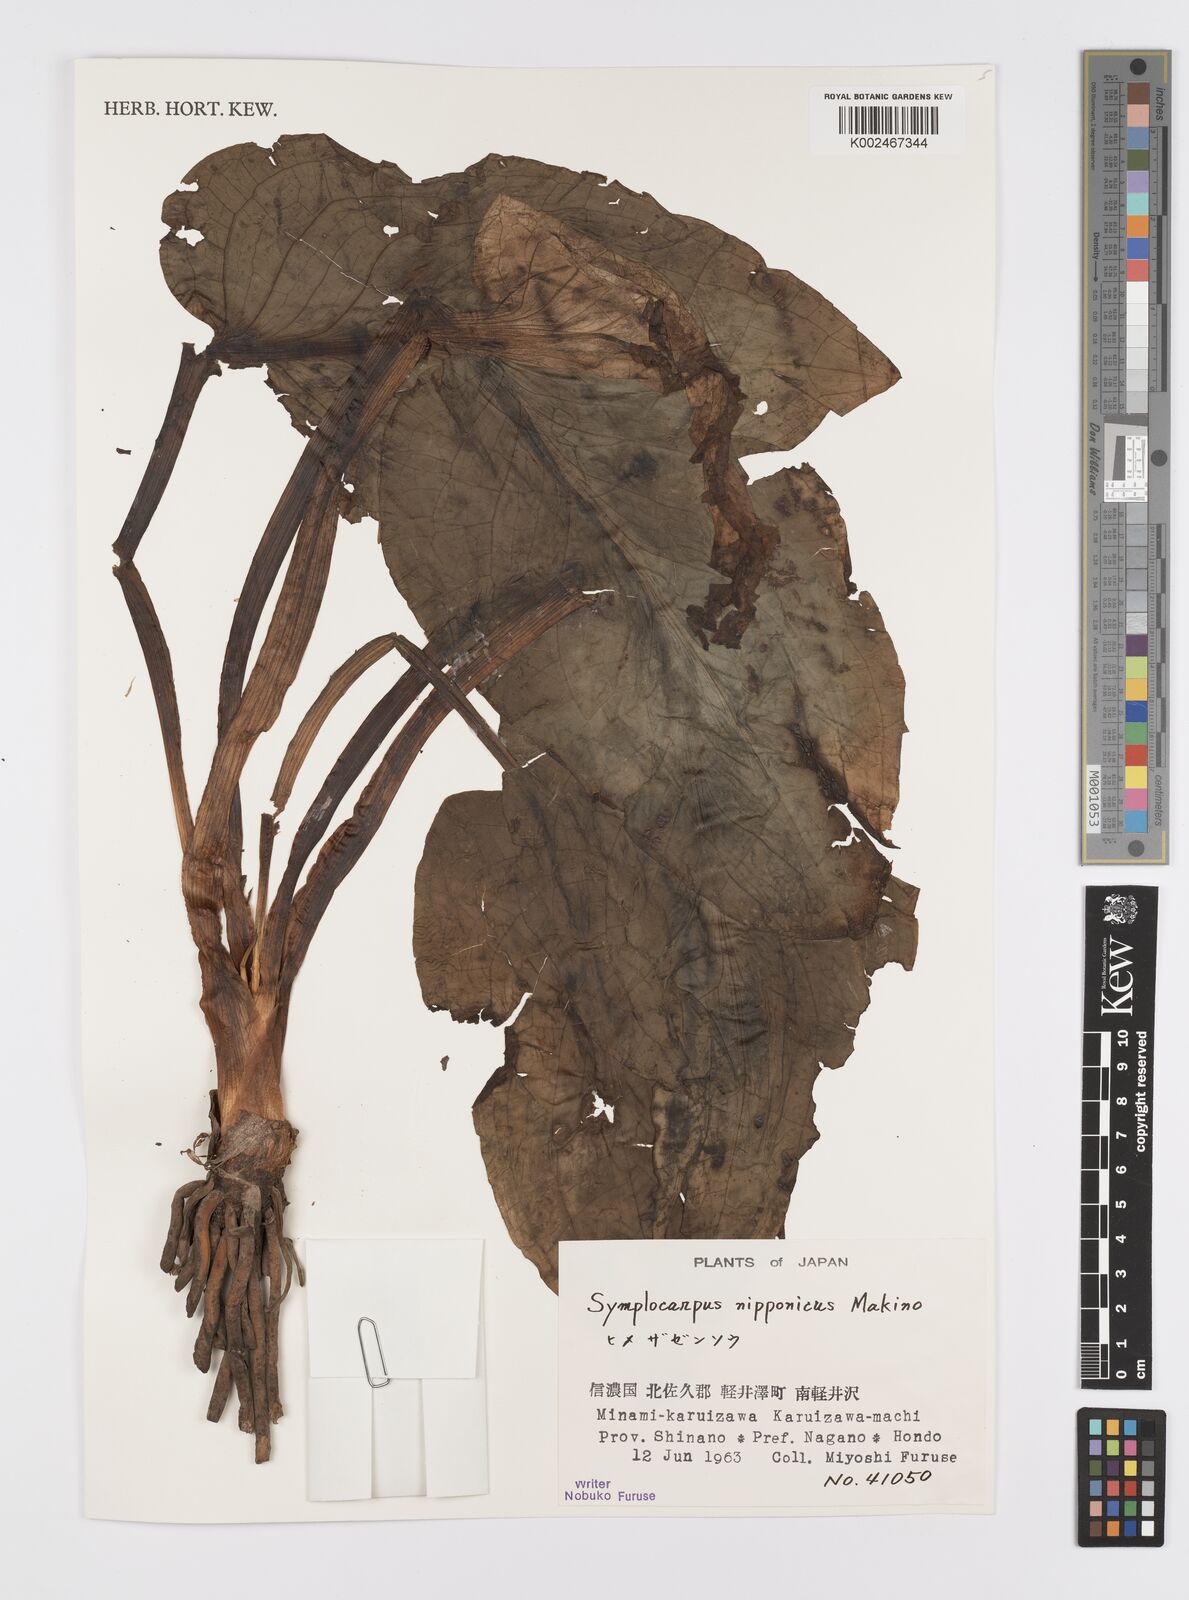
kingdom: Plantae
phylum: Tracheophyta
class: Liliopsida
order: Alismatales
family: Araceae
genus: Symplocarpus
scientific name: Symplocarpus nipponicus
